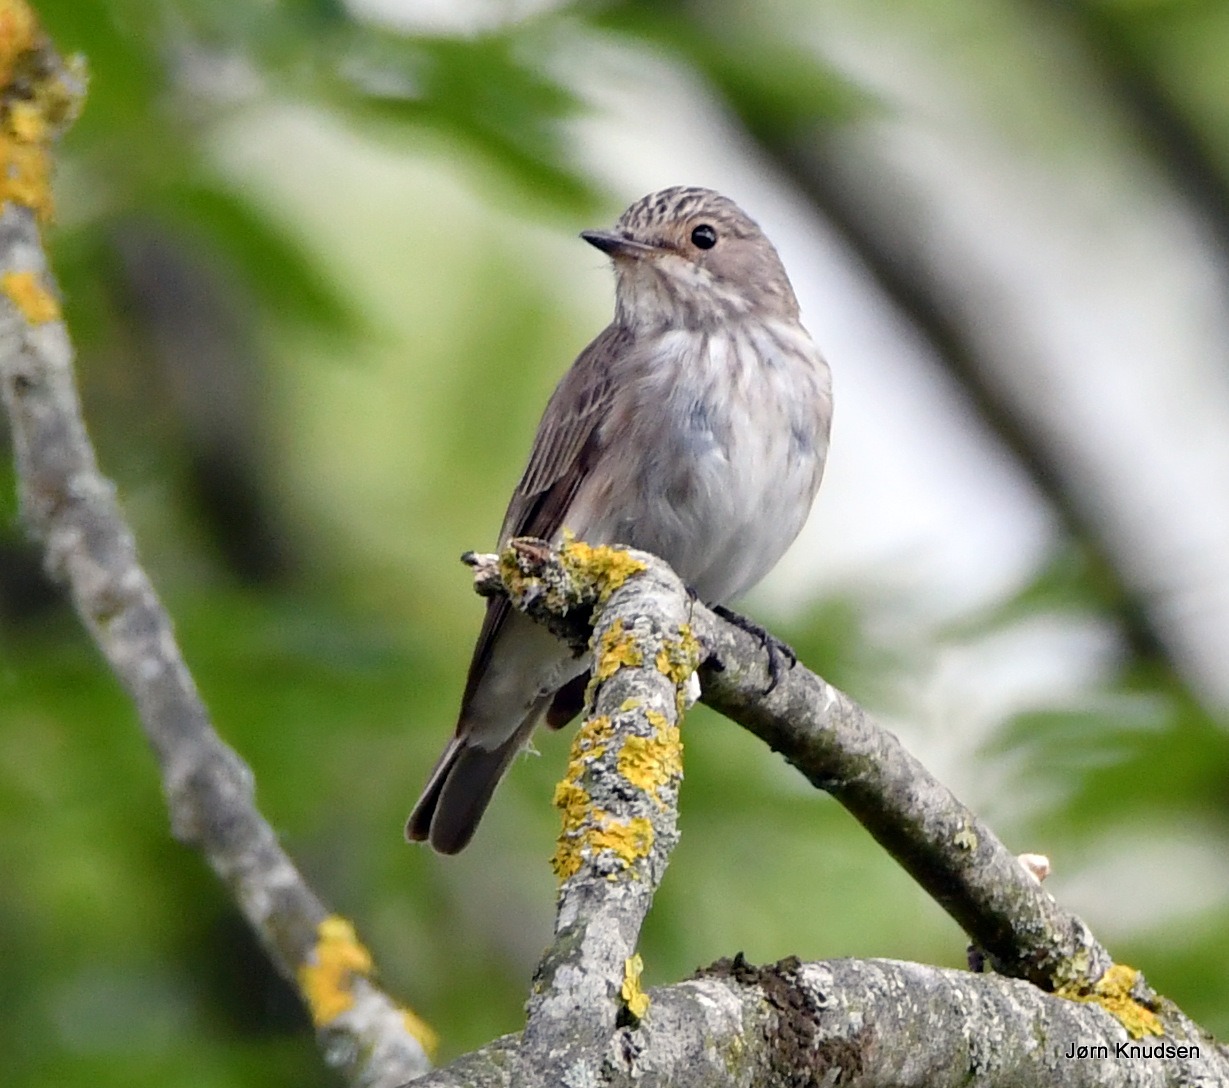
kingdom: Animalia
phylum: Chordata
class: Aves
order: Passeriformes
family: Muscicapidae
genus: Muscicapa
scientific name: Muscicapa striata
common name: Grå fluesnapper
